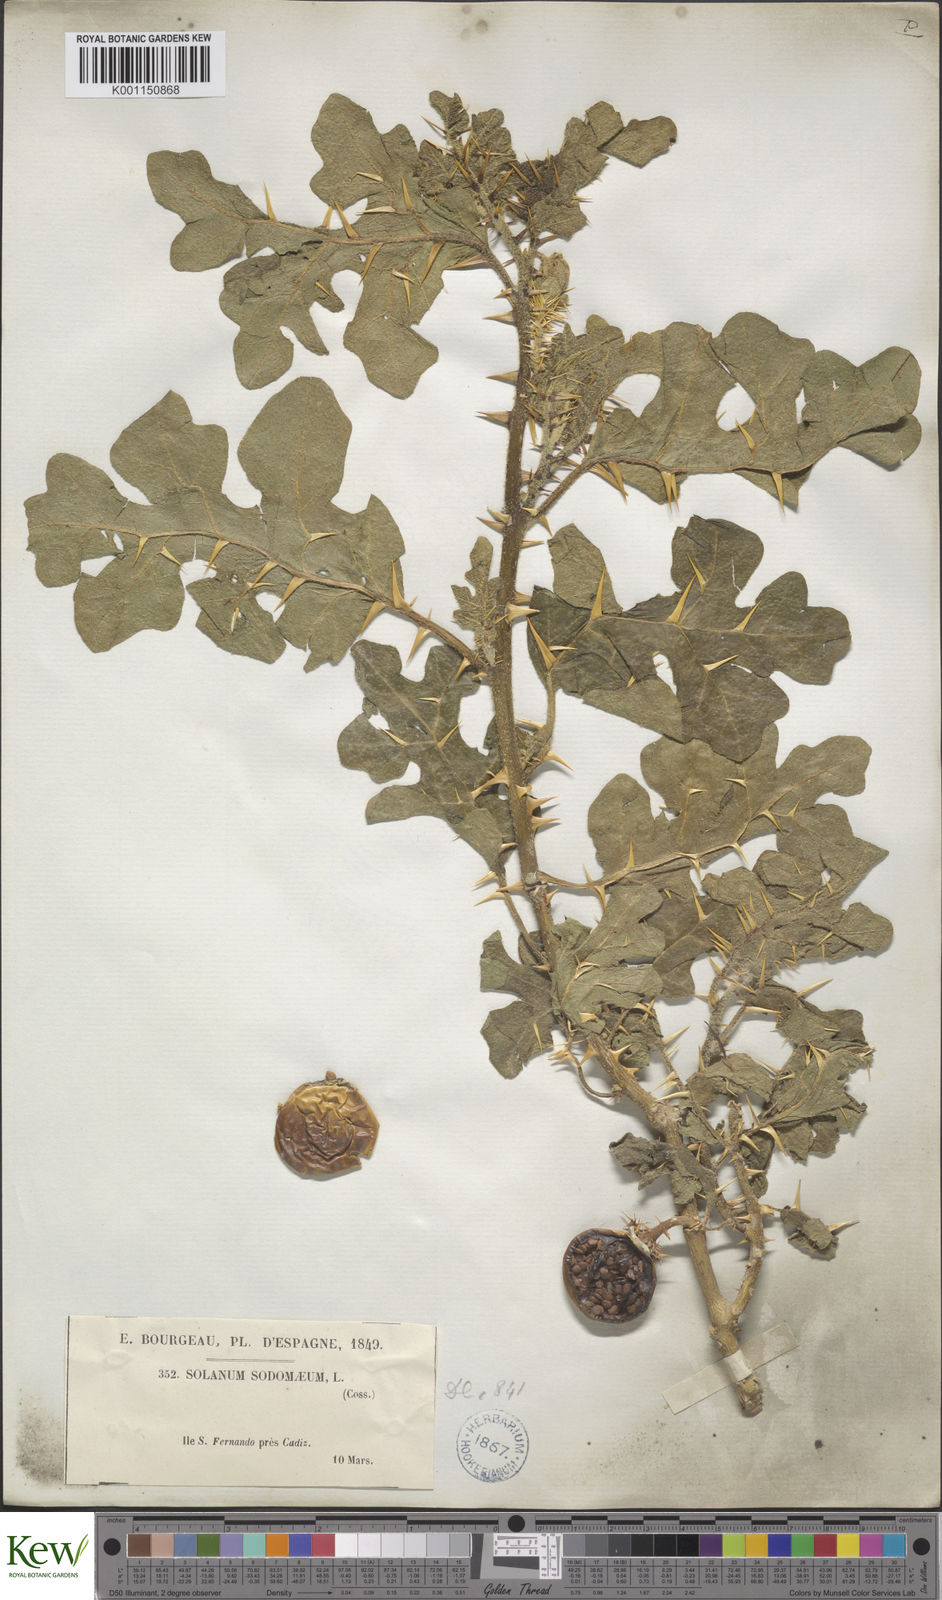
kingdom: Plantae
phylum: Tracheophyta
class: Magnoliopsida
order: Solanales
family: Solanaceae
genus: Solanum
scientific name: Solanum anguivi
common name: Forest bitterberry
